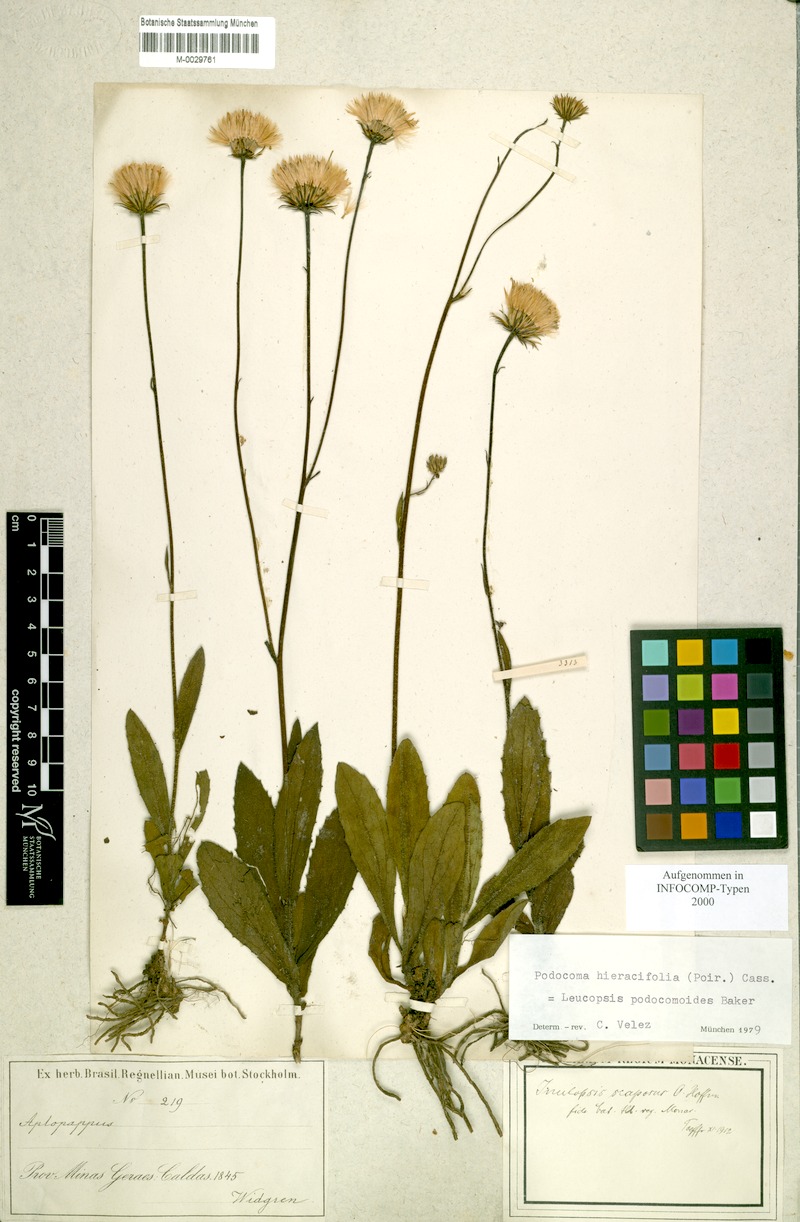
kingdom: Plantae
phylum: Tracheophyta
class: Magnoliopsida
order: Asterales
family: Asteraceae
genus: Noticastrum
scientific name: Noticastrum Leucopsis podocomoides
